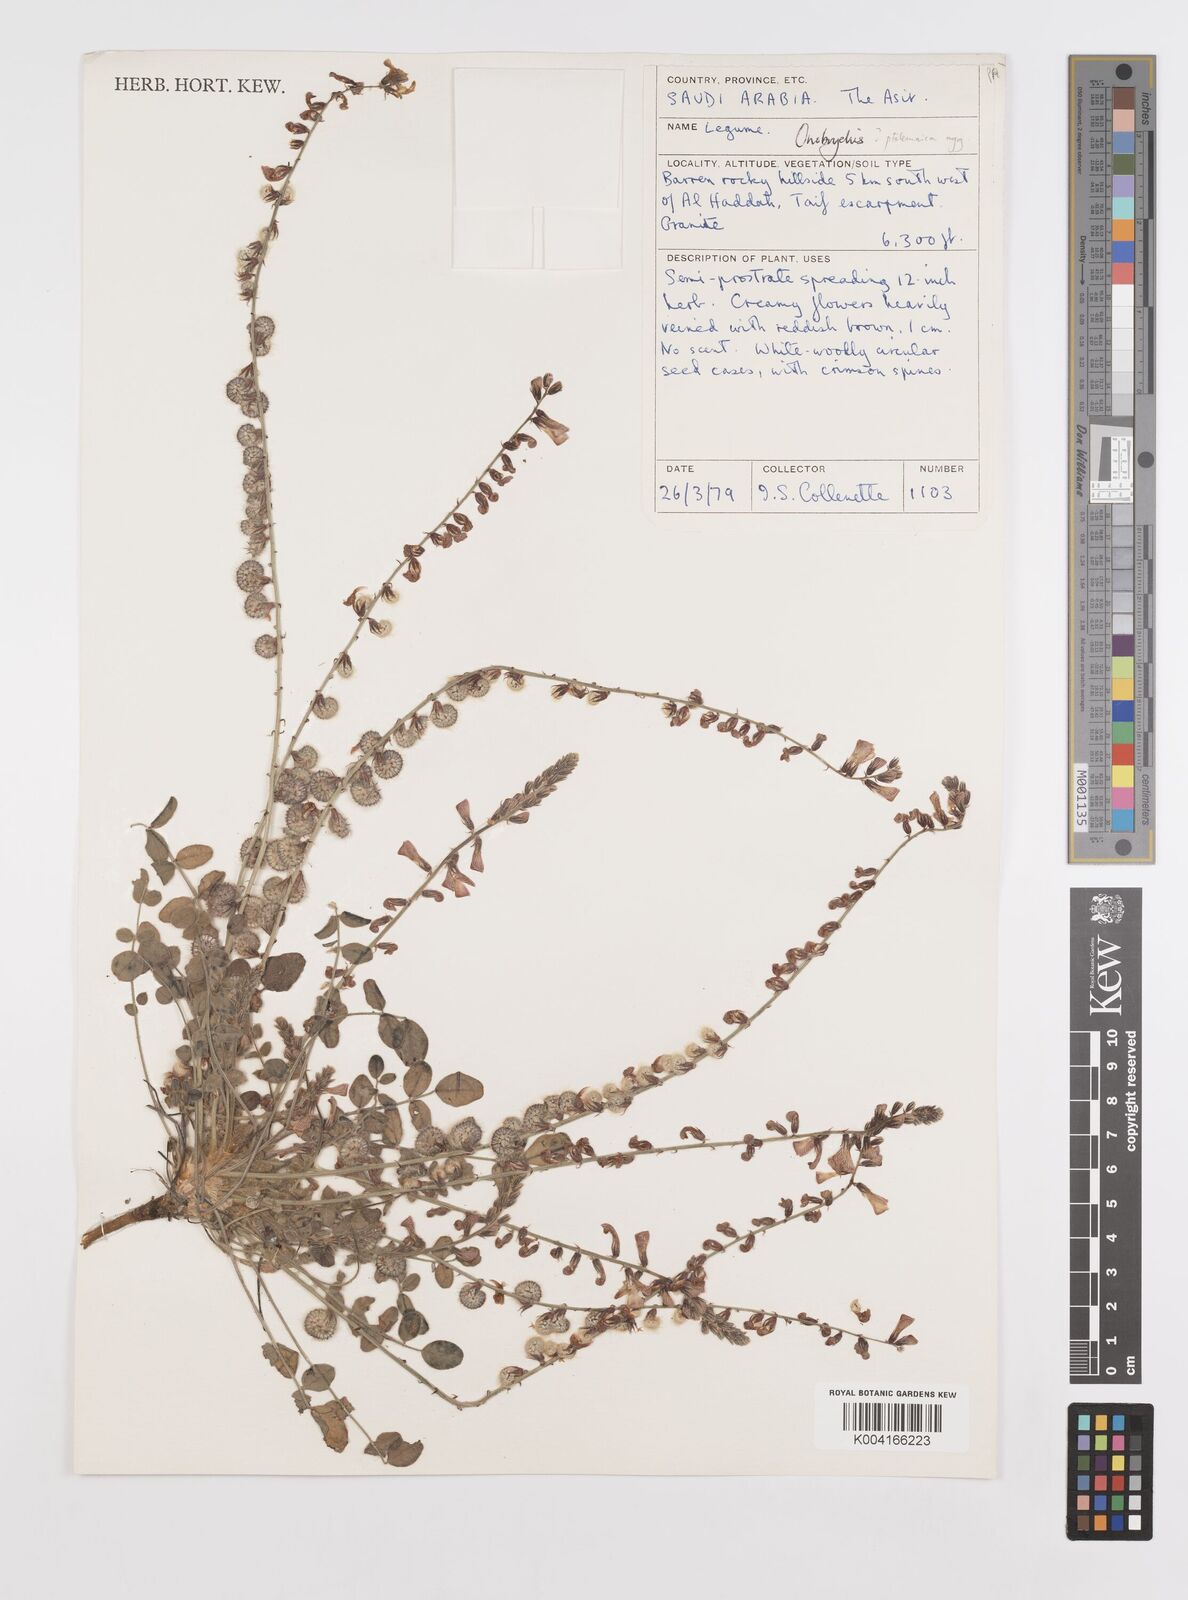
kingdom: Plantae
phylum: Tracheophyta
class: Magnoliopsida
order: Fabales
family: Fabaceae
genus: Onobrychis
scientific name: Onobrychis ptolemaica
